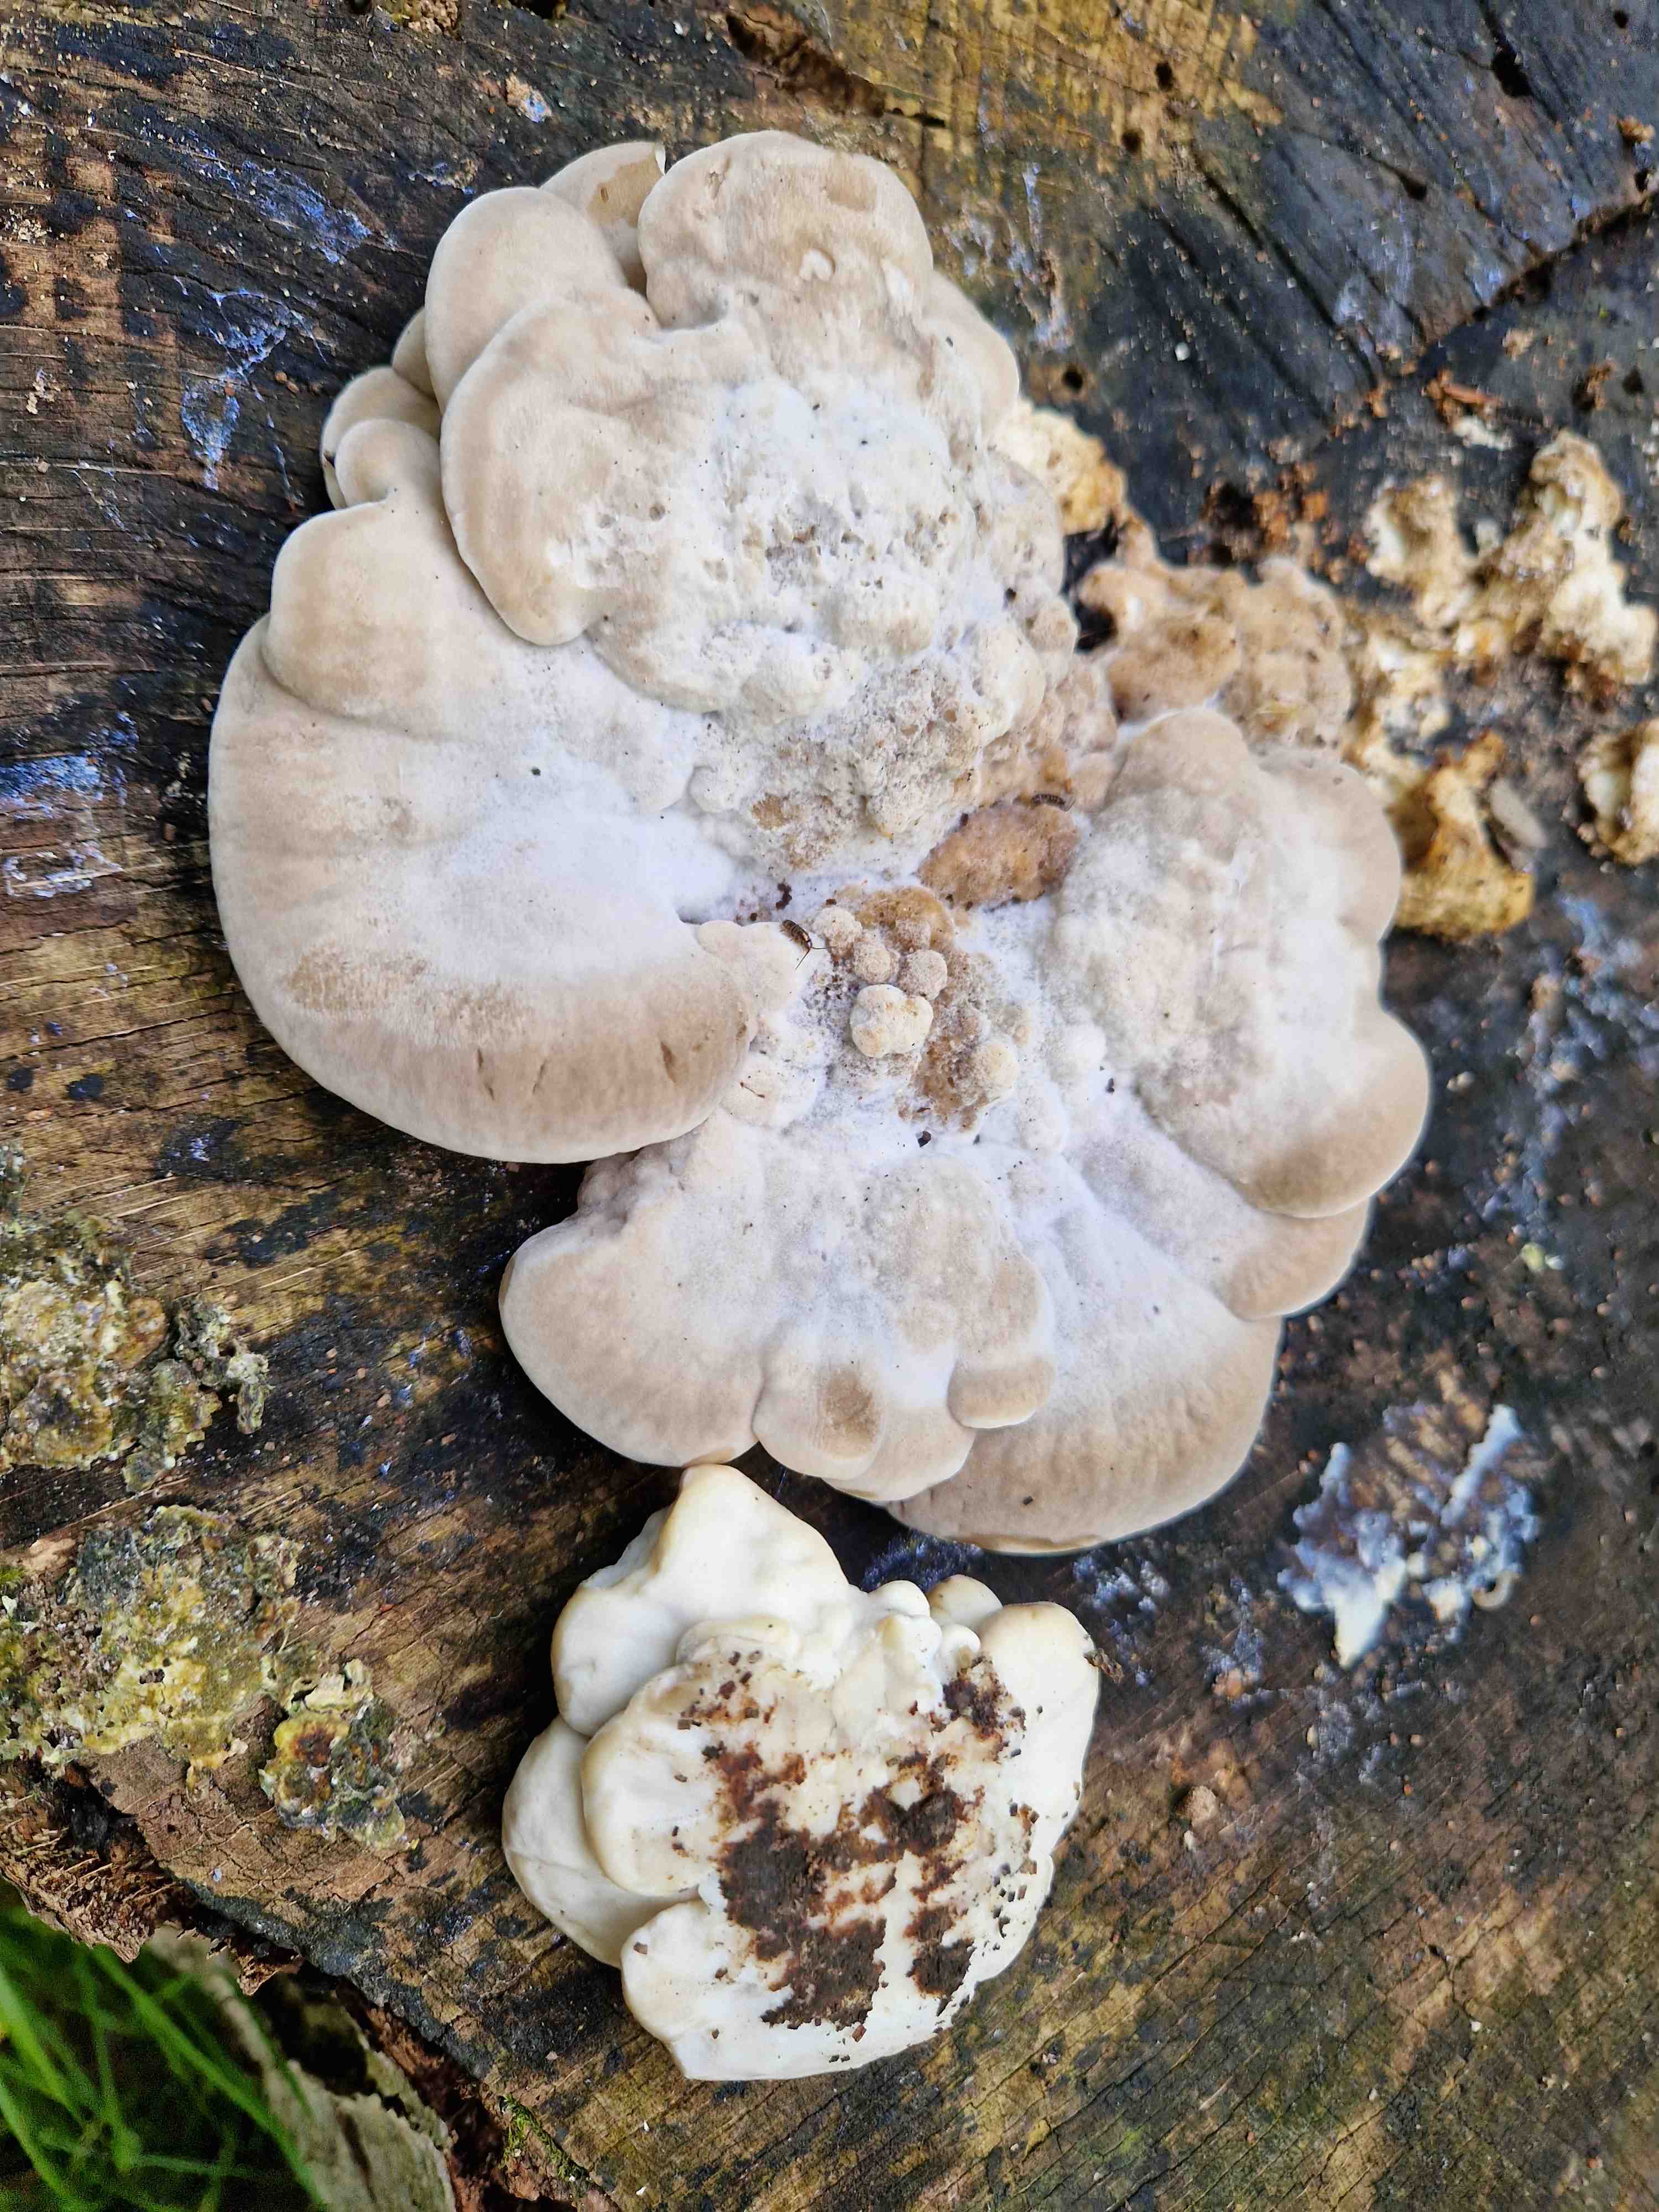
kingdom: Fungi
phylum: Basidiomycota
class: Agaricomycetes
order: Polyporales
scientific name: Polyporales
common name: poresvampordenen
